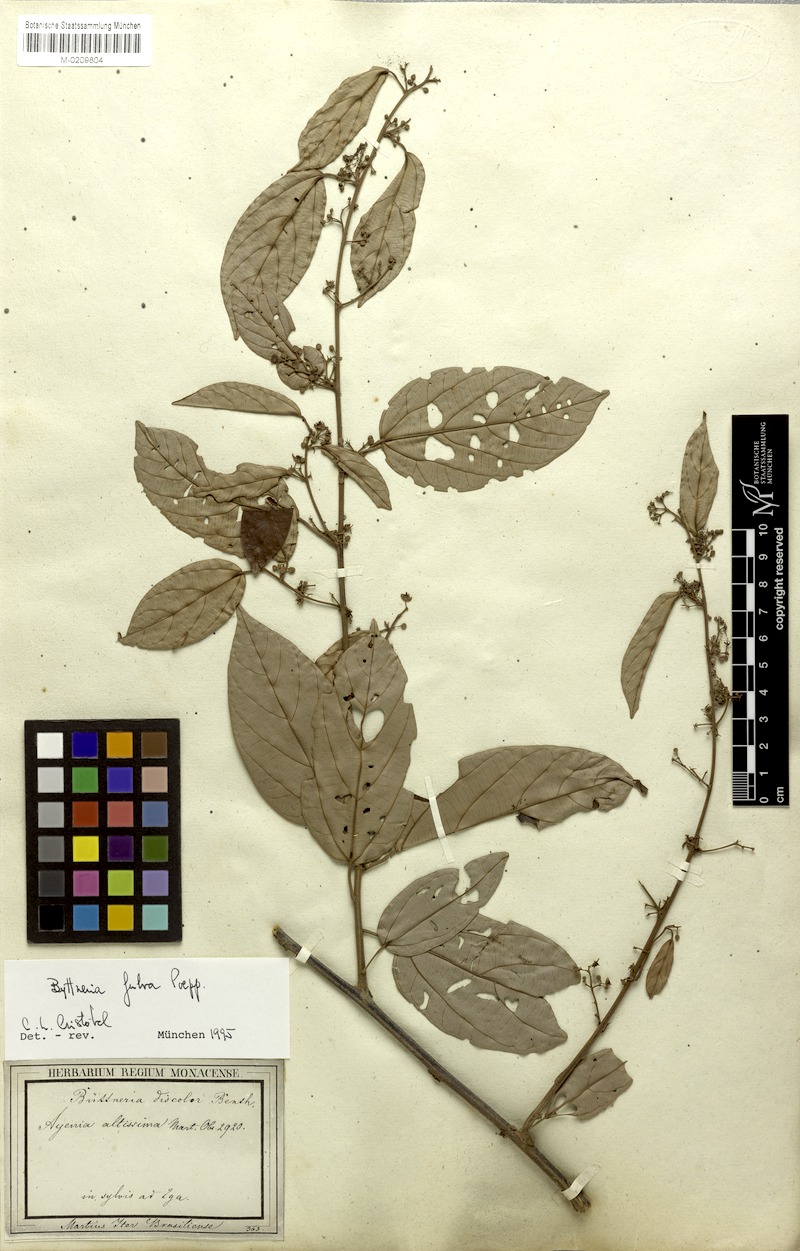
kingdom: Plantae
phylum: Tracheophyta
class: Magnoliopsida
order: Malvales
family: Malvaceae
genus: Byttneria
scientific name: Byttneria fulva
